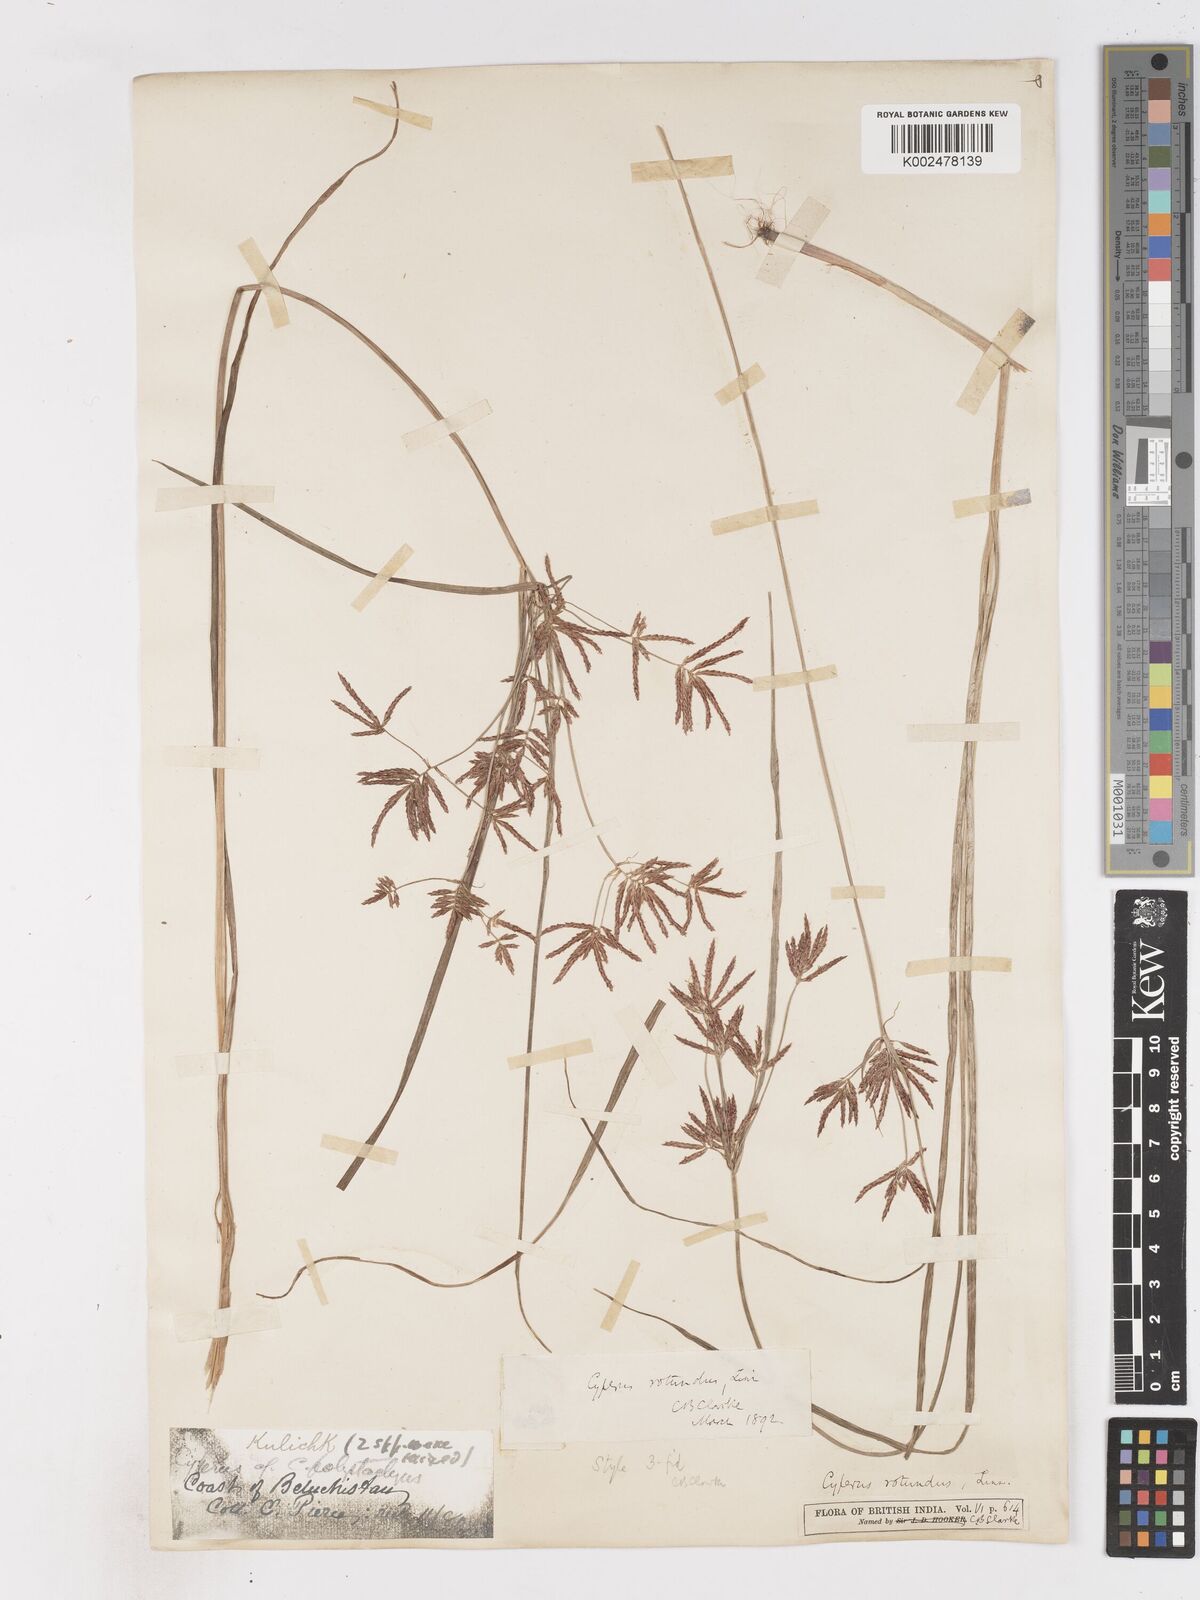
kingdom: Plantae
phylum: Tracheophyta
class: Liliopsida
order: Poales
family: Cyperaceae
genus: Cyperus
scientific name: Cyperus rotundus
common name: Nutgrass
